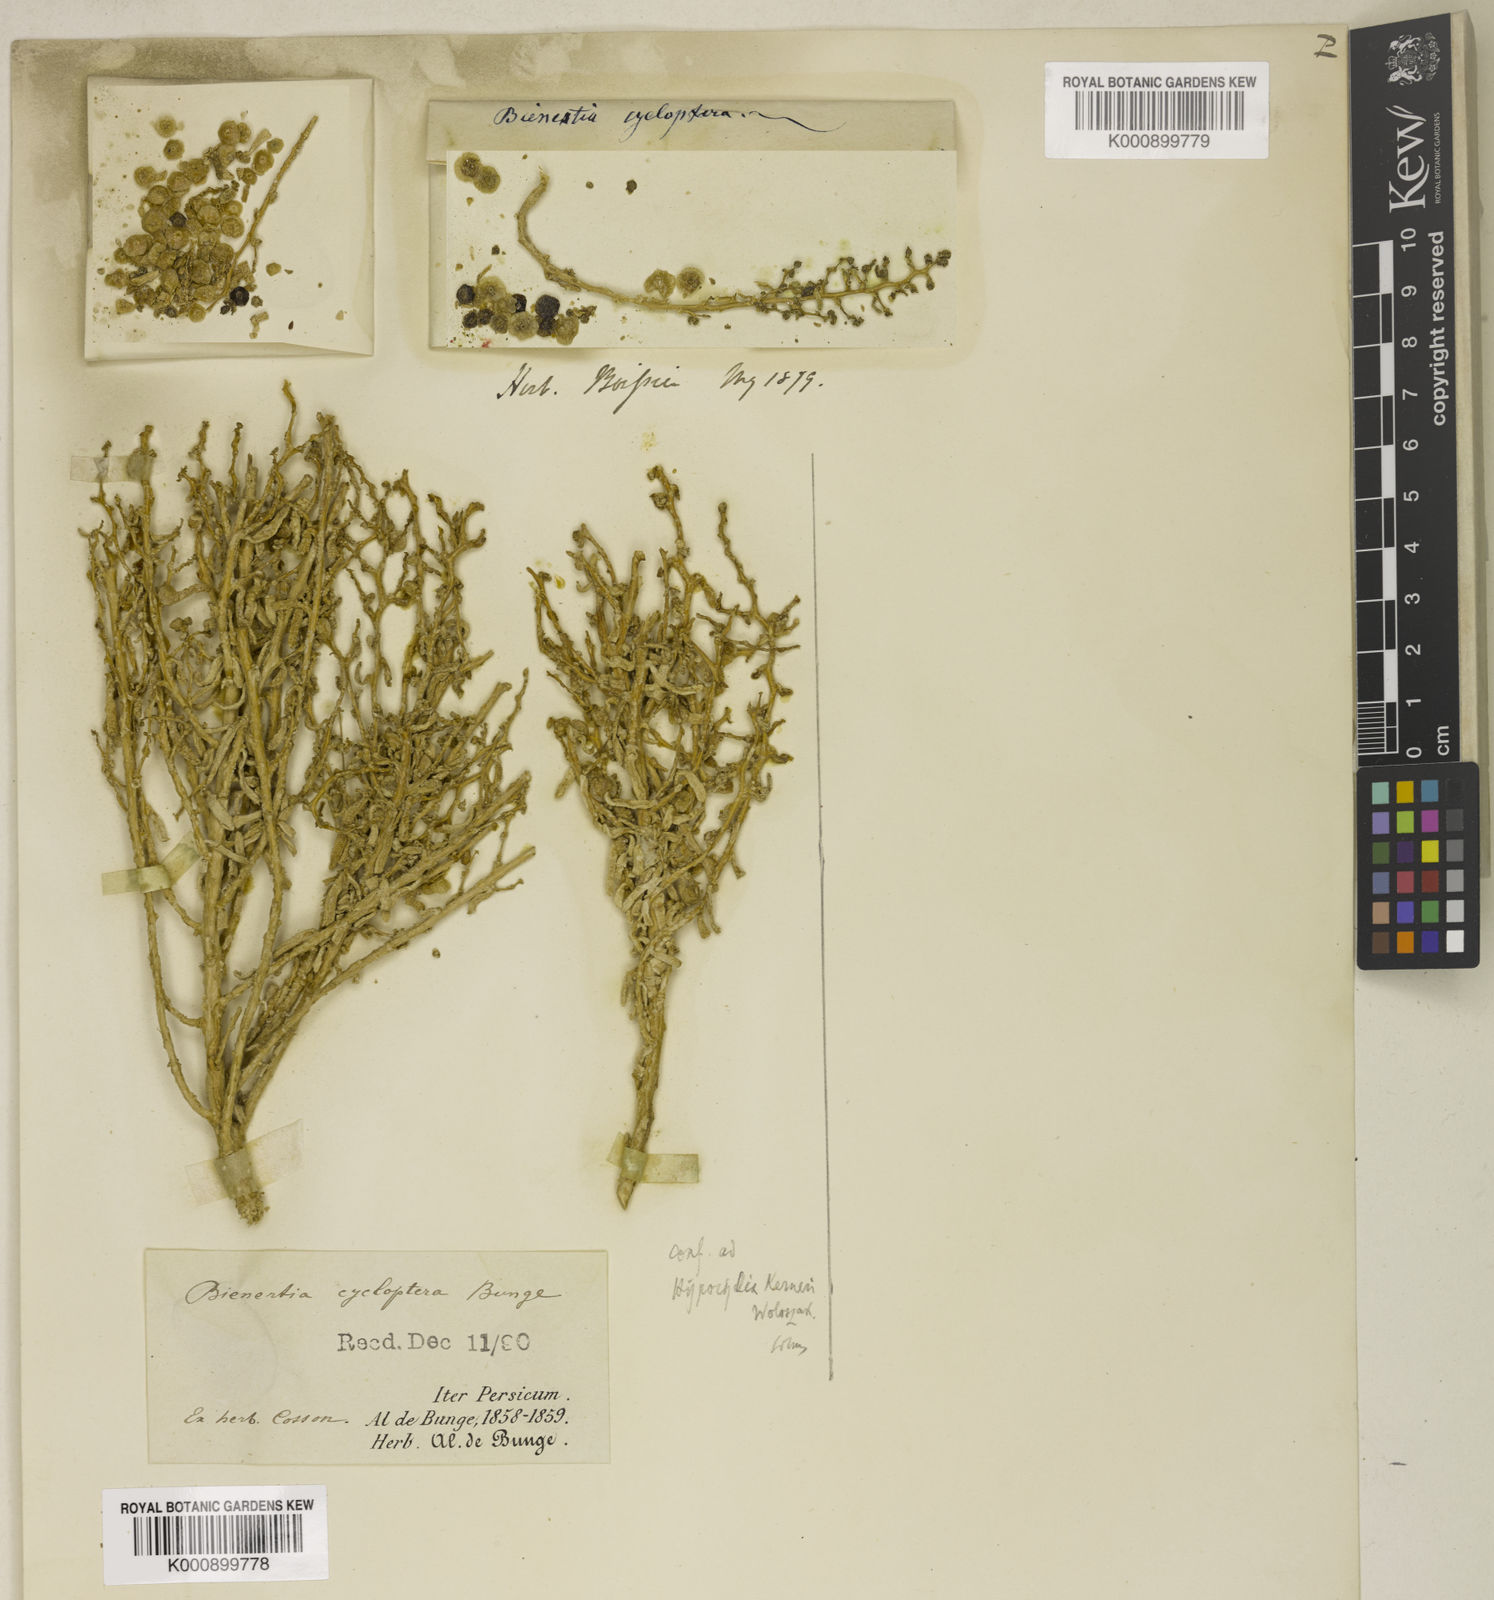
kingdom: Plantae
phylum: Tracheophyta
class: Magnoliopsida
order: Caryophyllales
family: Amaranthaceae
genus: Bienertia
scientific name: Bienertia cycloptera
